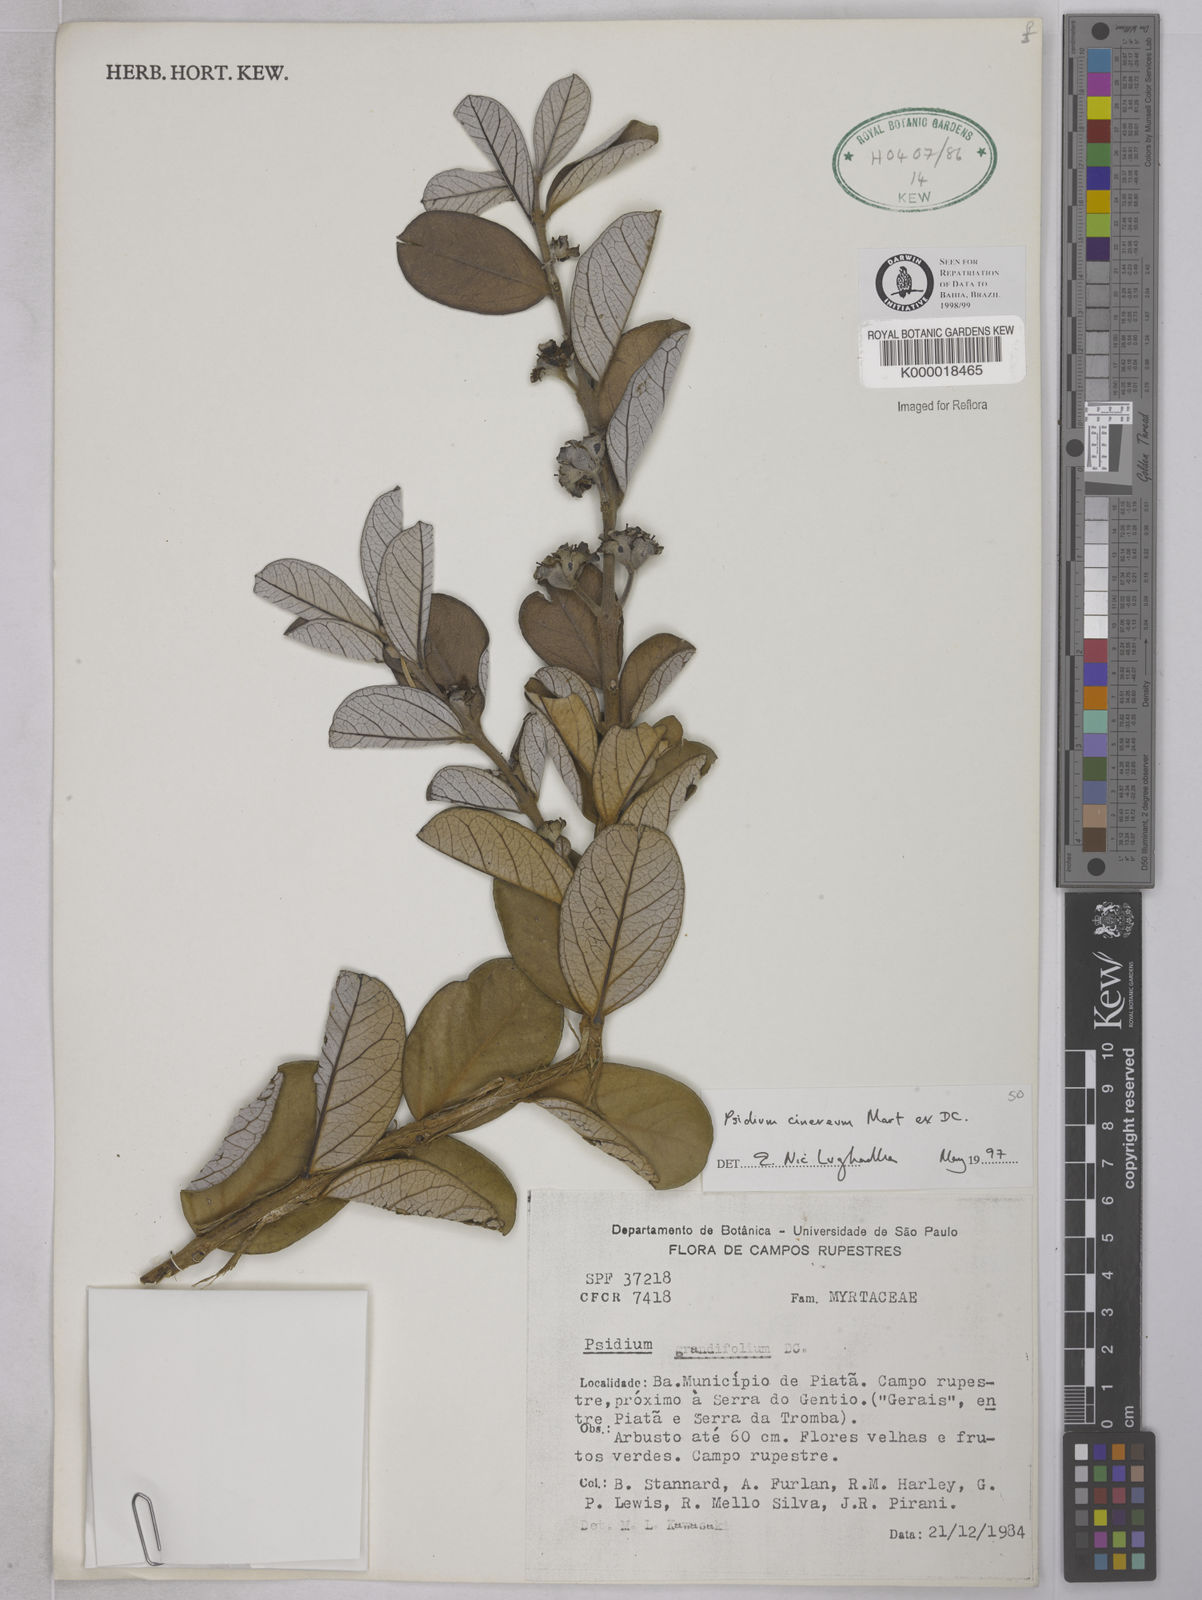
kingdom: Plantae
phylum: Tracheophyta
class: Magnoliopsida
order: Myrtales
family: Myrtaceae
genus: Psidium
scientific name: Psidium grandifolium
